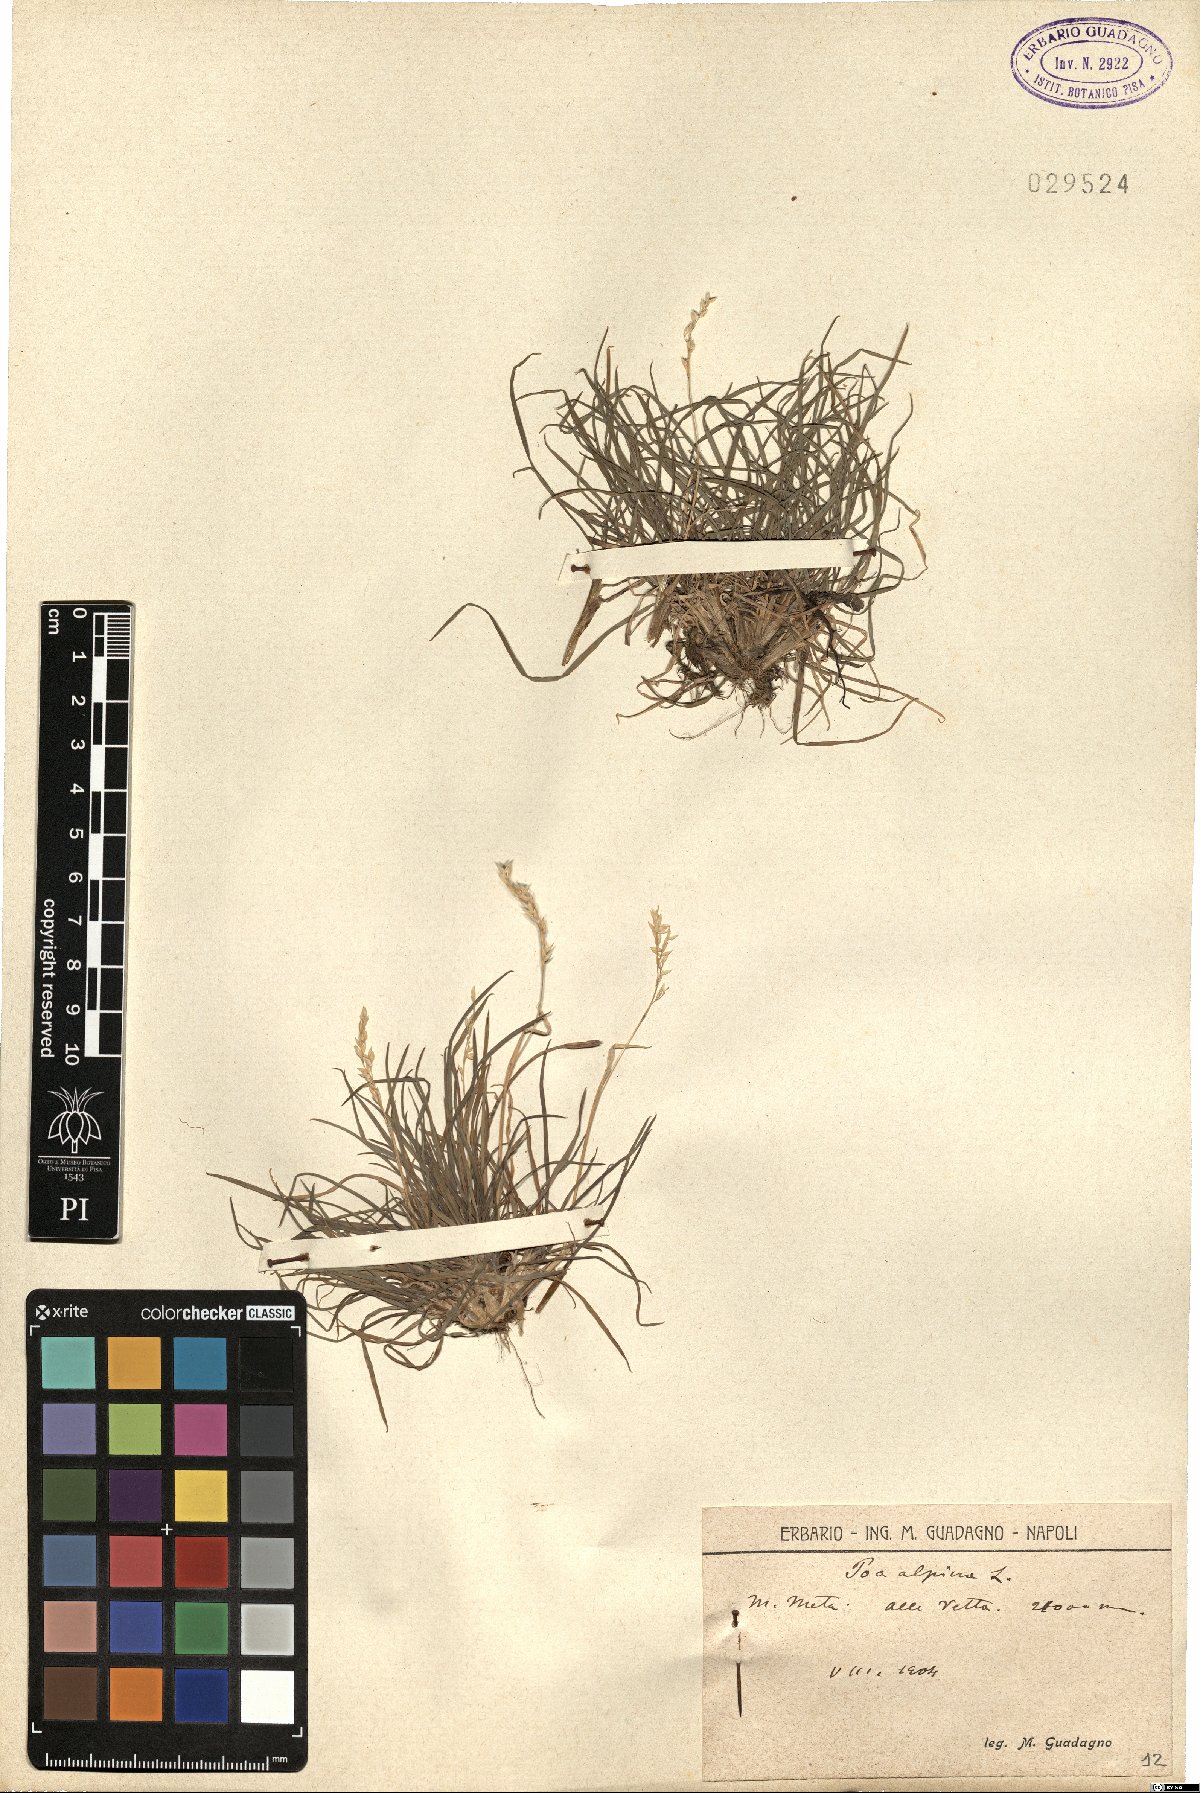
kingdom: Plantae
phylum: Tracheophyta
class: Liliopsida
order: Poales
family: Poaceae
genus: Poa
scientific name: Poa alpina
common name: Alpine bluegrass
